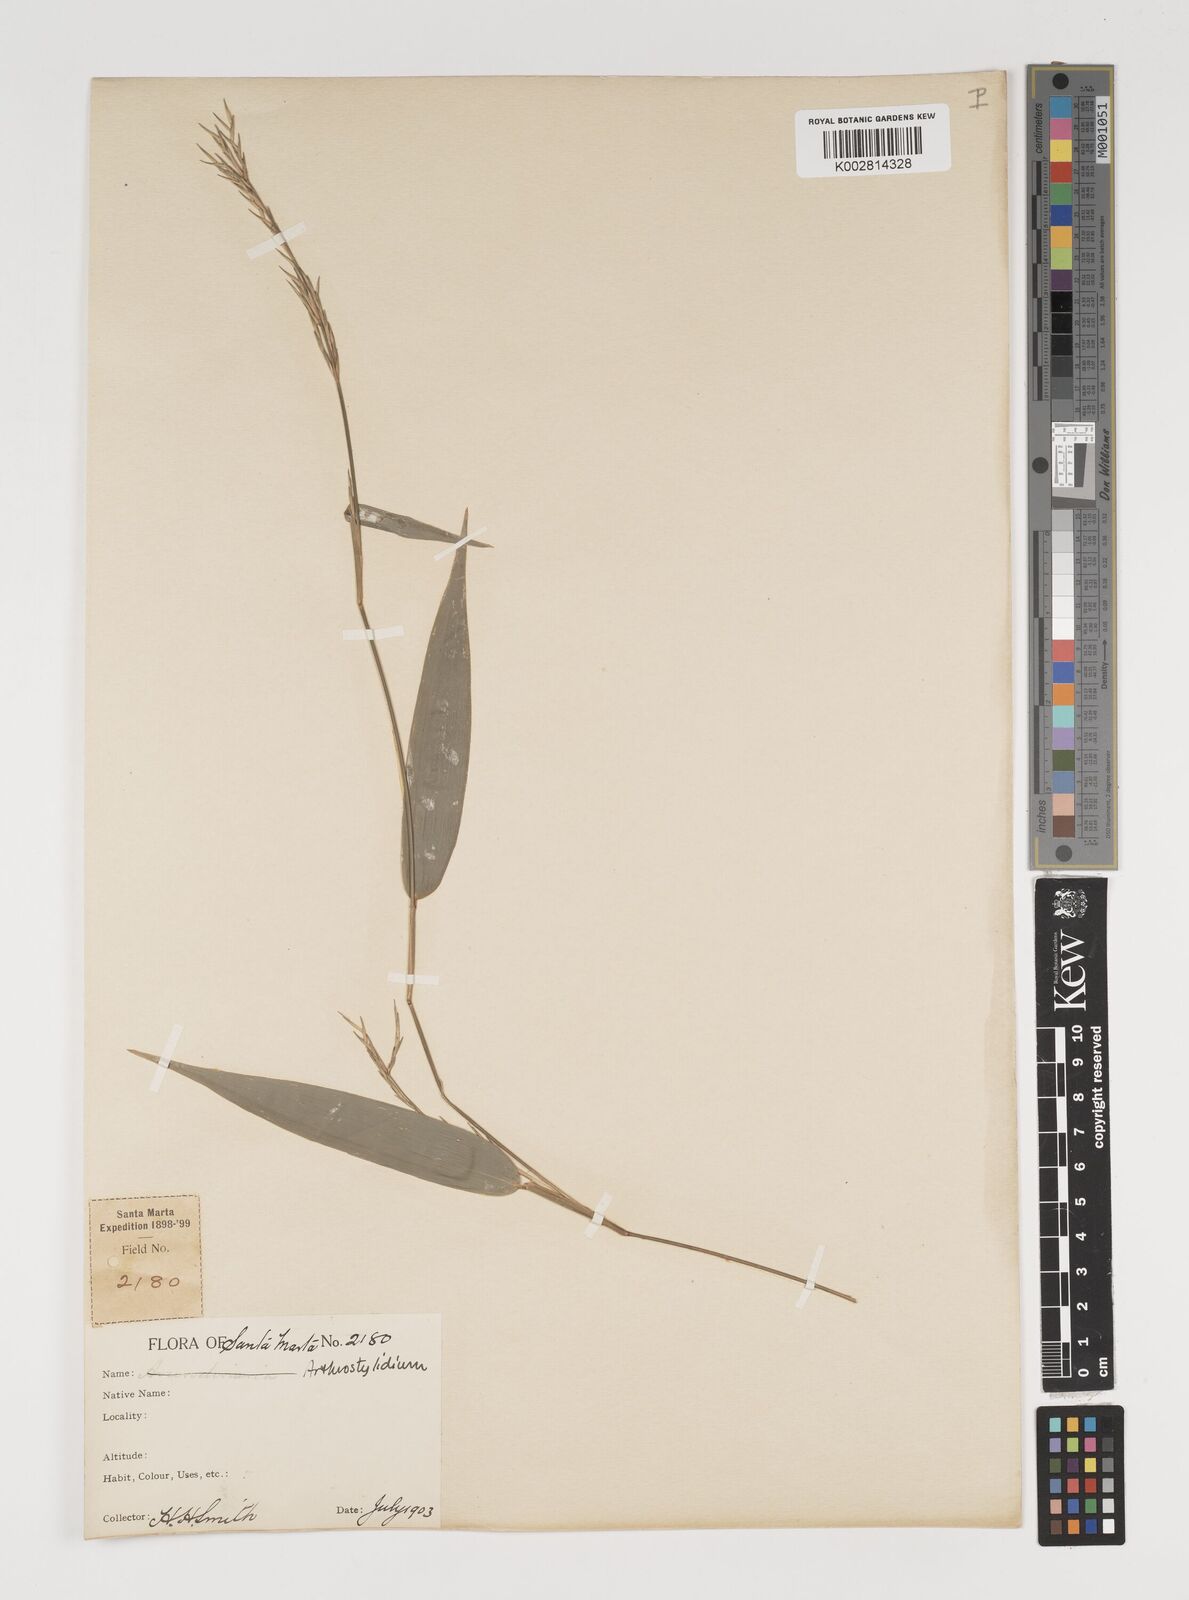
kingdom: Plantae
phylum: Tracheophyta
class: Liliopsida
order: Poales
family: Poaceae
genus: Arthrostylidium
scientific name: Arthrostylidium
